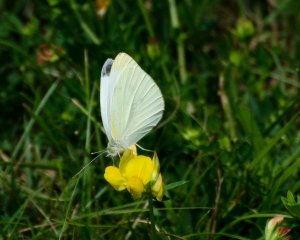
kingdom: Animalia
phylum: Arthropoda
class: Insecta
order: Lepidoptera
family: Pieridae
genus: Pieris
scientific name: Pieris rapae
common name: Cabbage White
